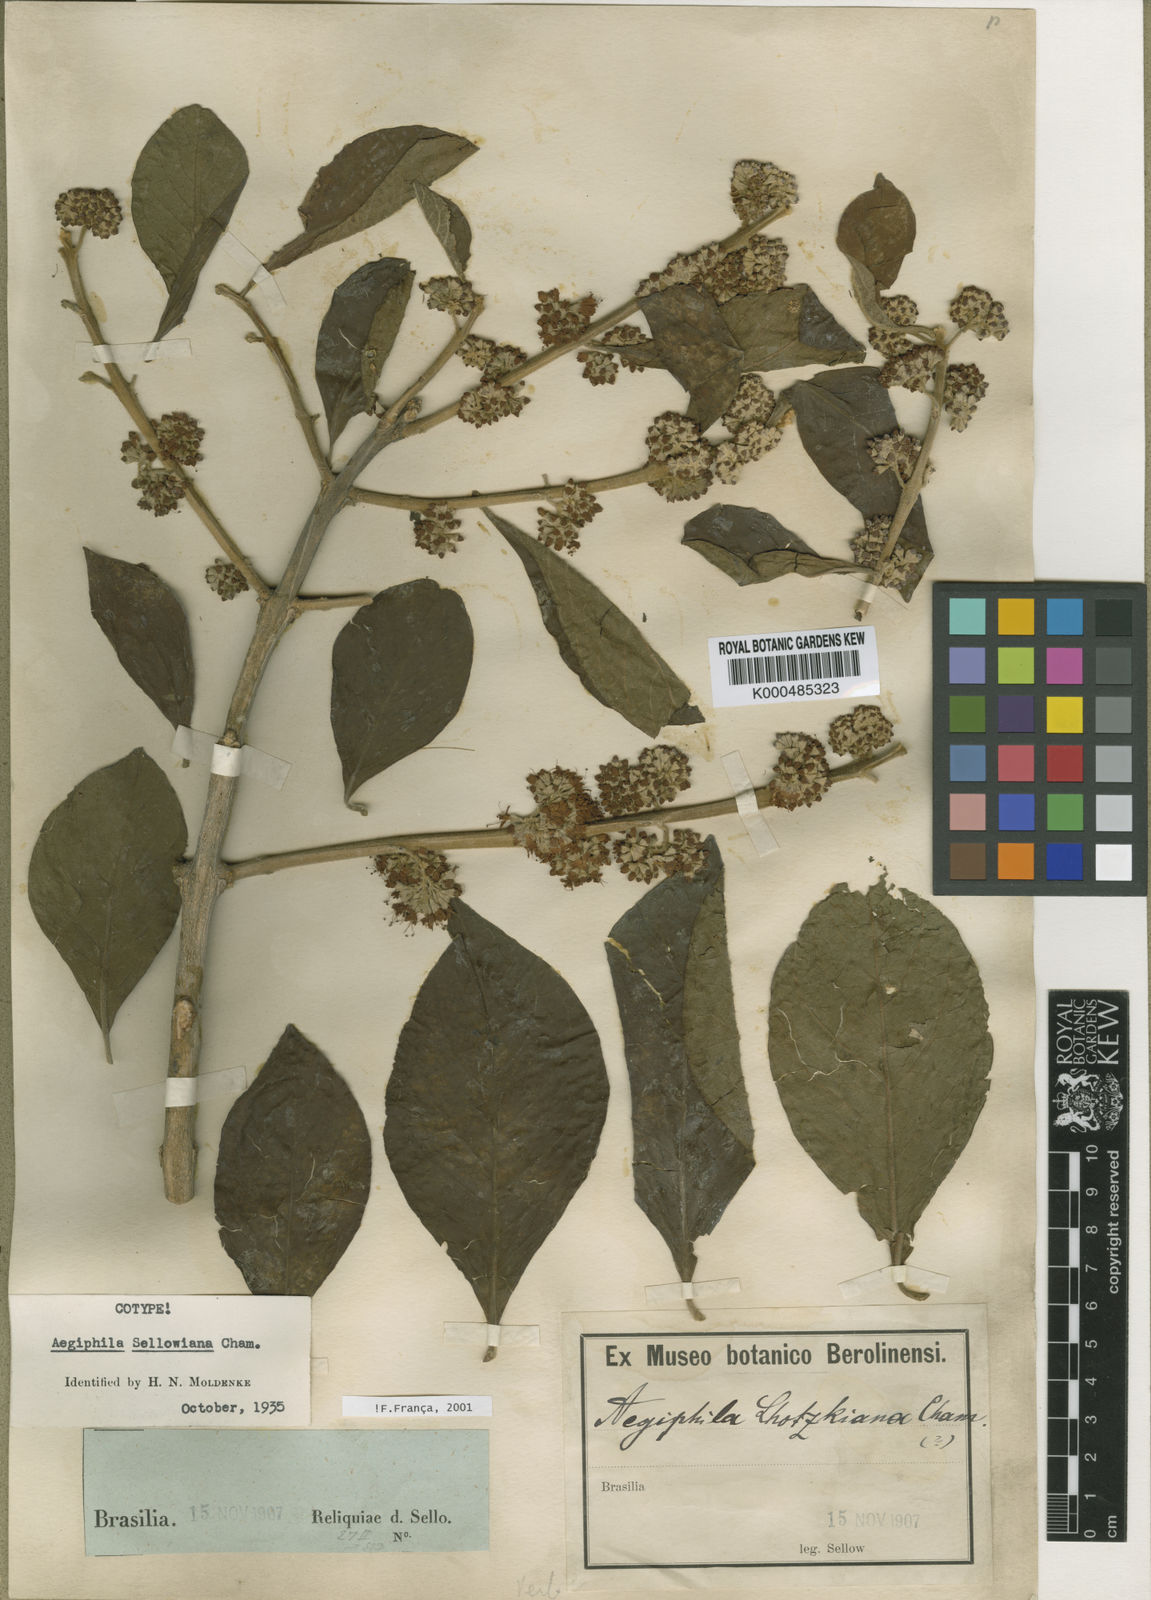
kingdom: Plantae
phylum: Tracheophyta
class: Magnoliopsida
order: Lamiales
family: Lamiaceae
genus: Aegiphila
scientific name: Aegiphila verticillata
